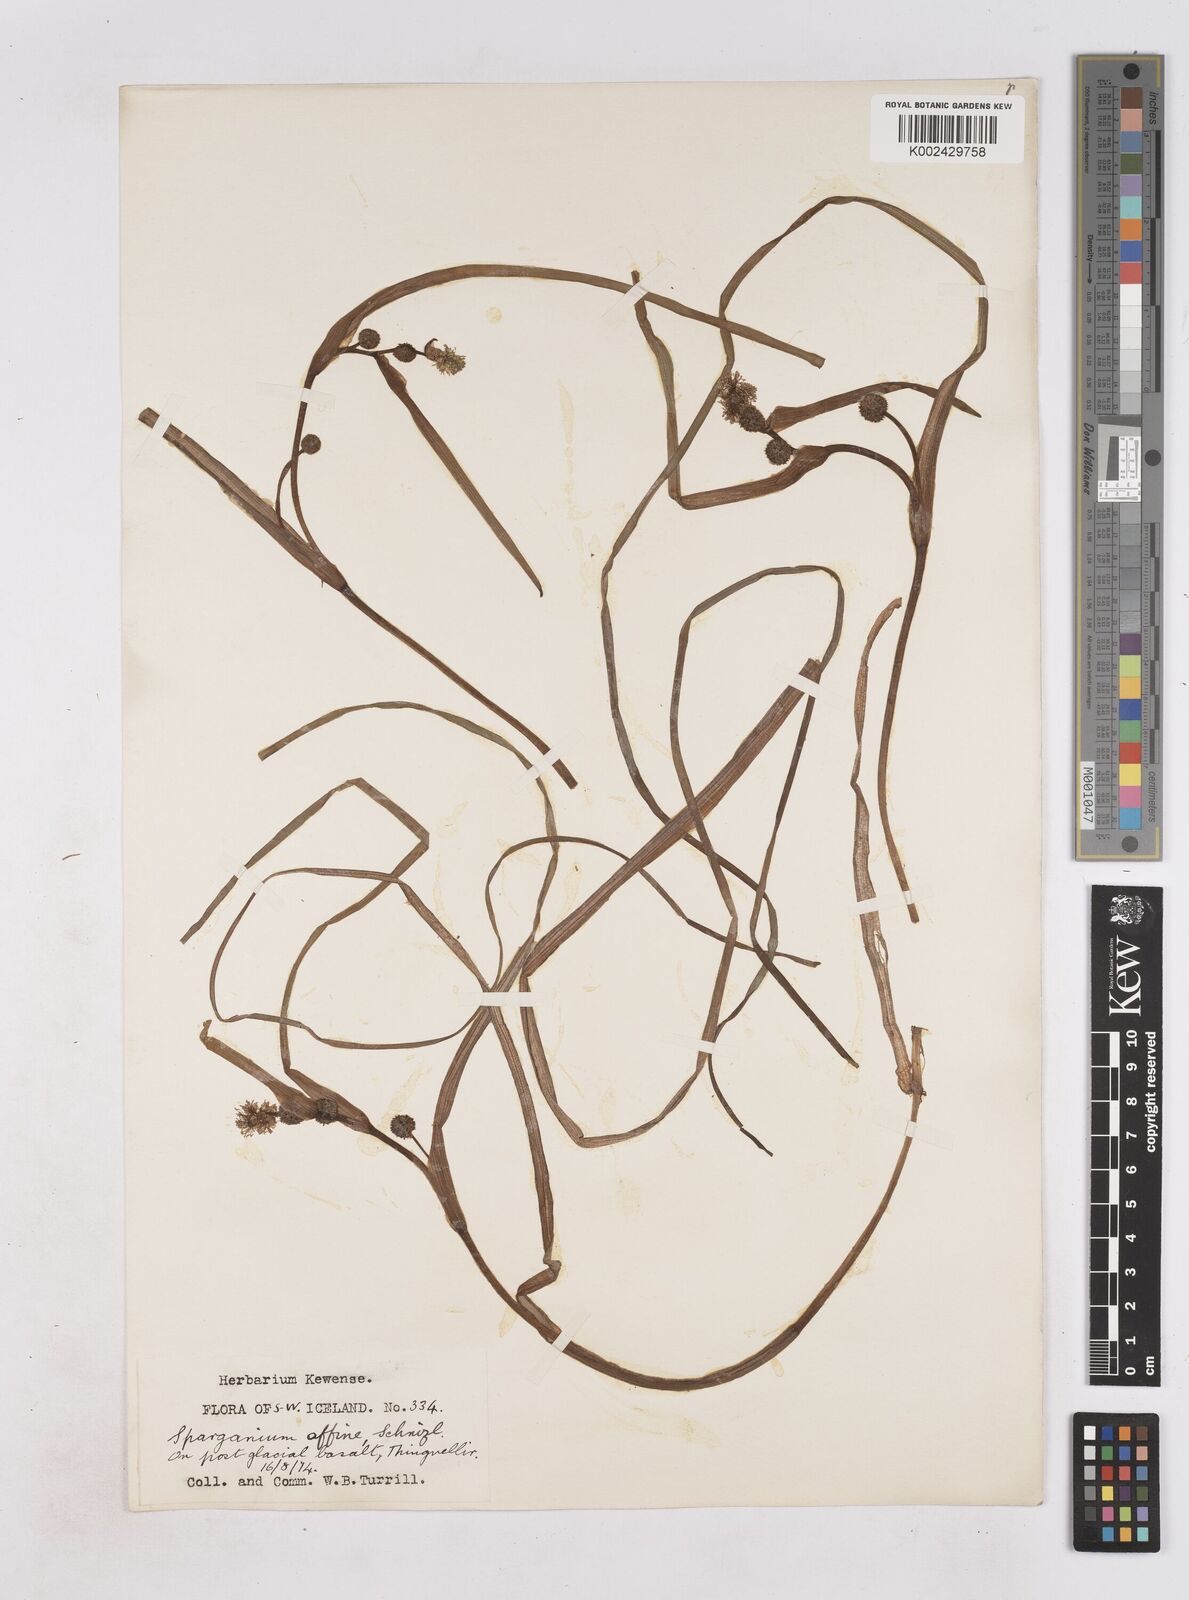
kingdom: Plantae
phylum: Tracheophyta
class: Liliopsida
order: Poales
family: Typhaceae
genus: Sparganium
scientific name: Sparganium angustifolium
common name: Floating bur-reed
